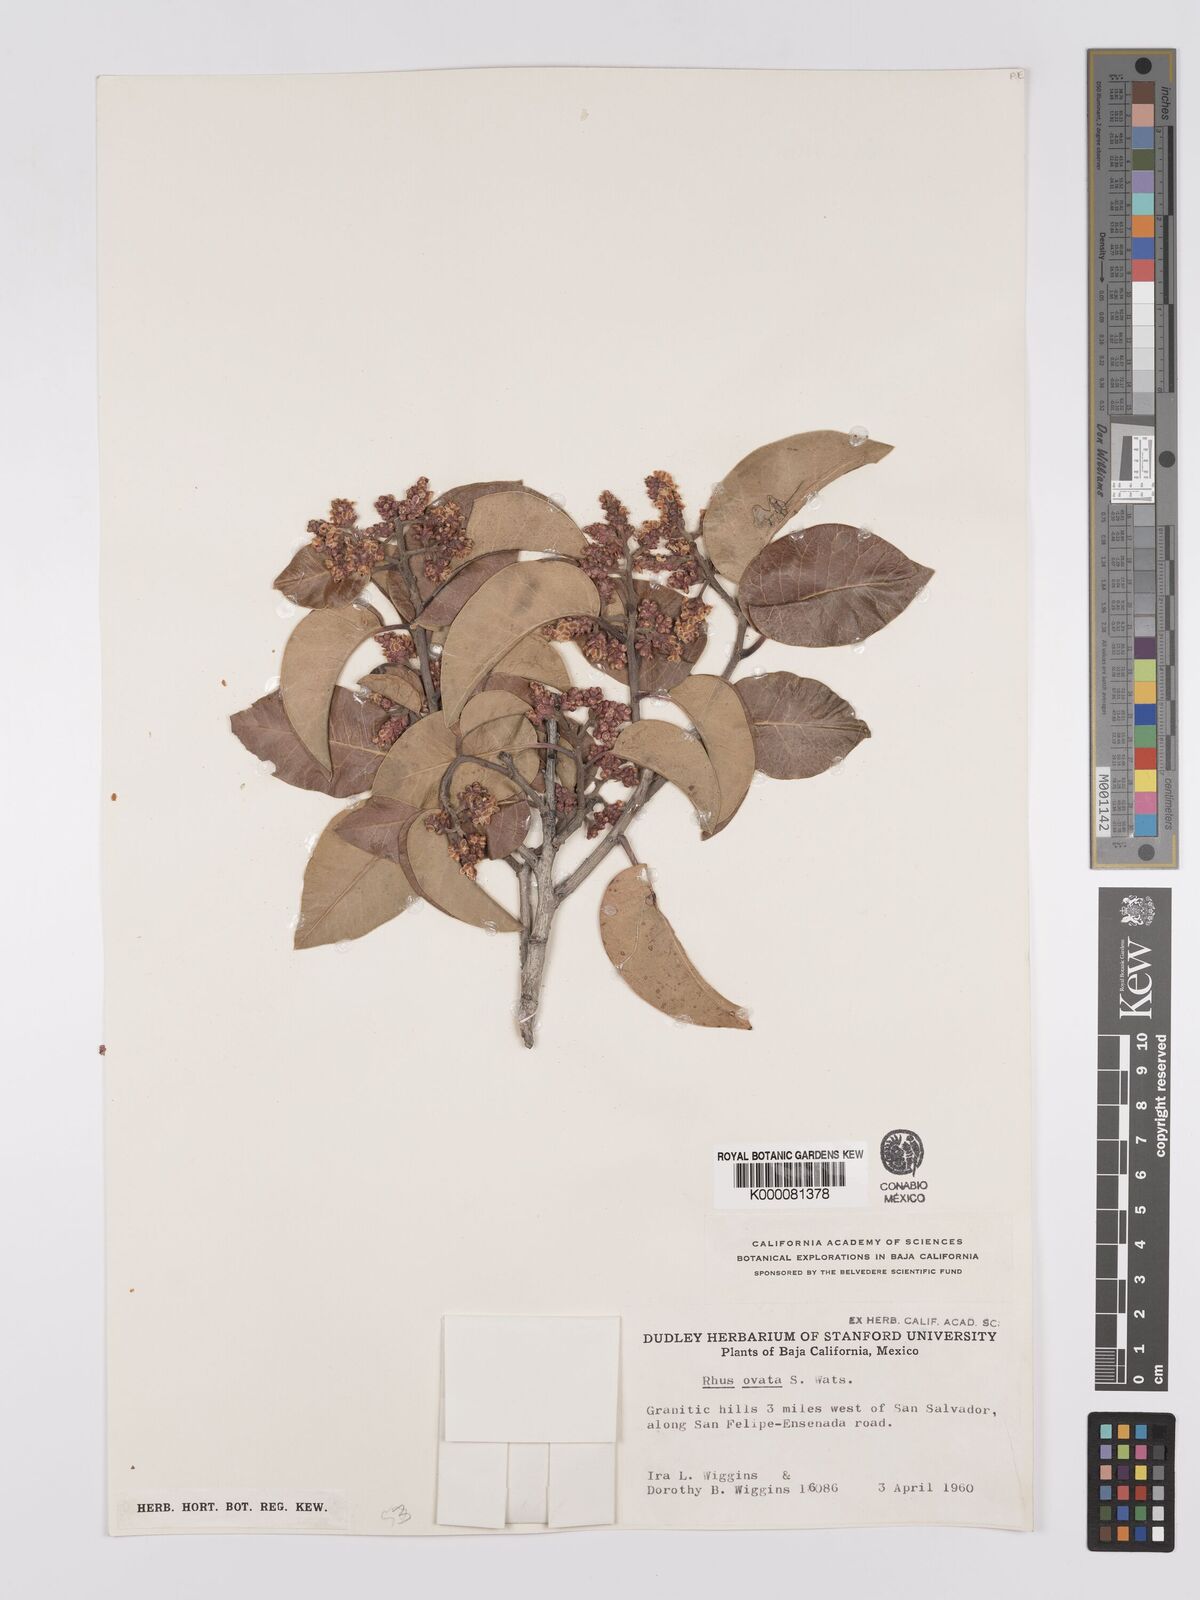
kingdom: Plantae
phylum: Tracheophyta
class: Magnoliopsida
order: Sapindales
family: Anacardiaceae
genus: Rhus
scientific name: Rhus ovata
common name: Sugar sumac
